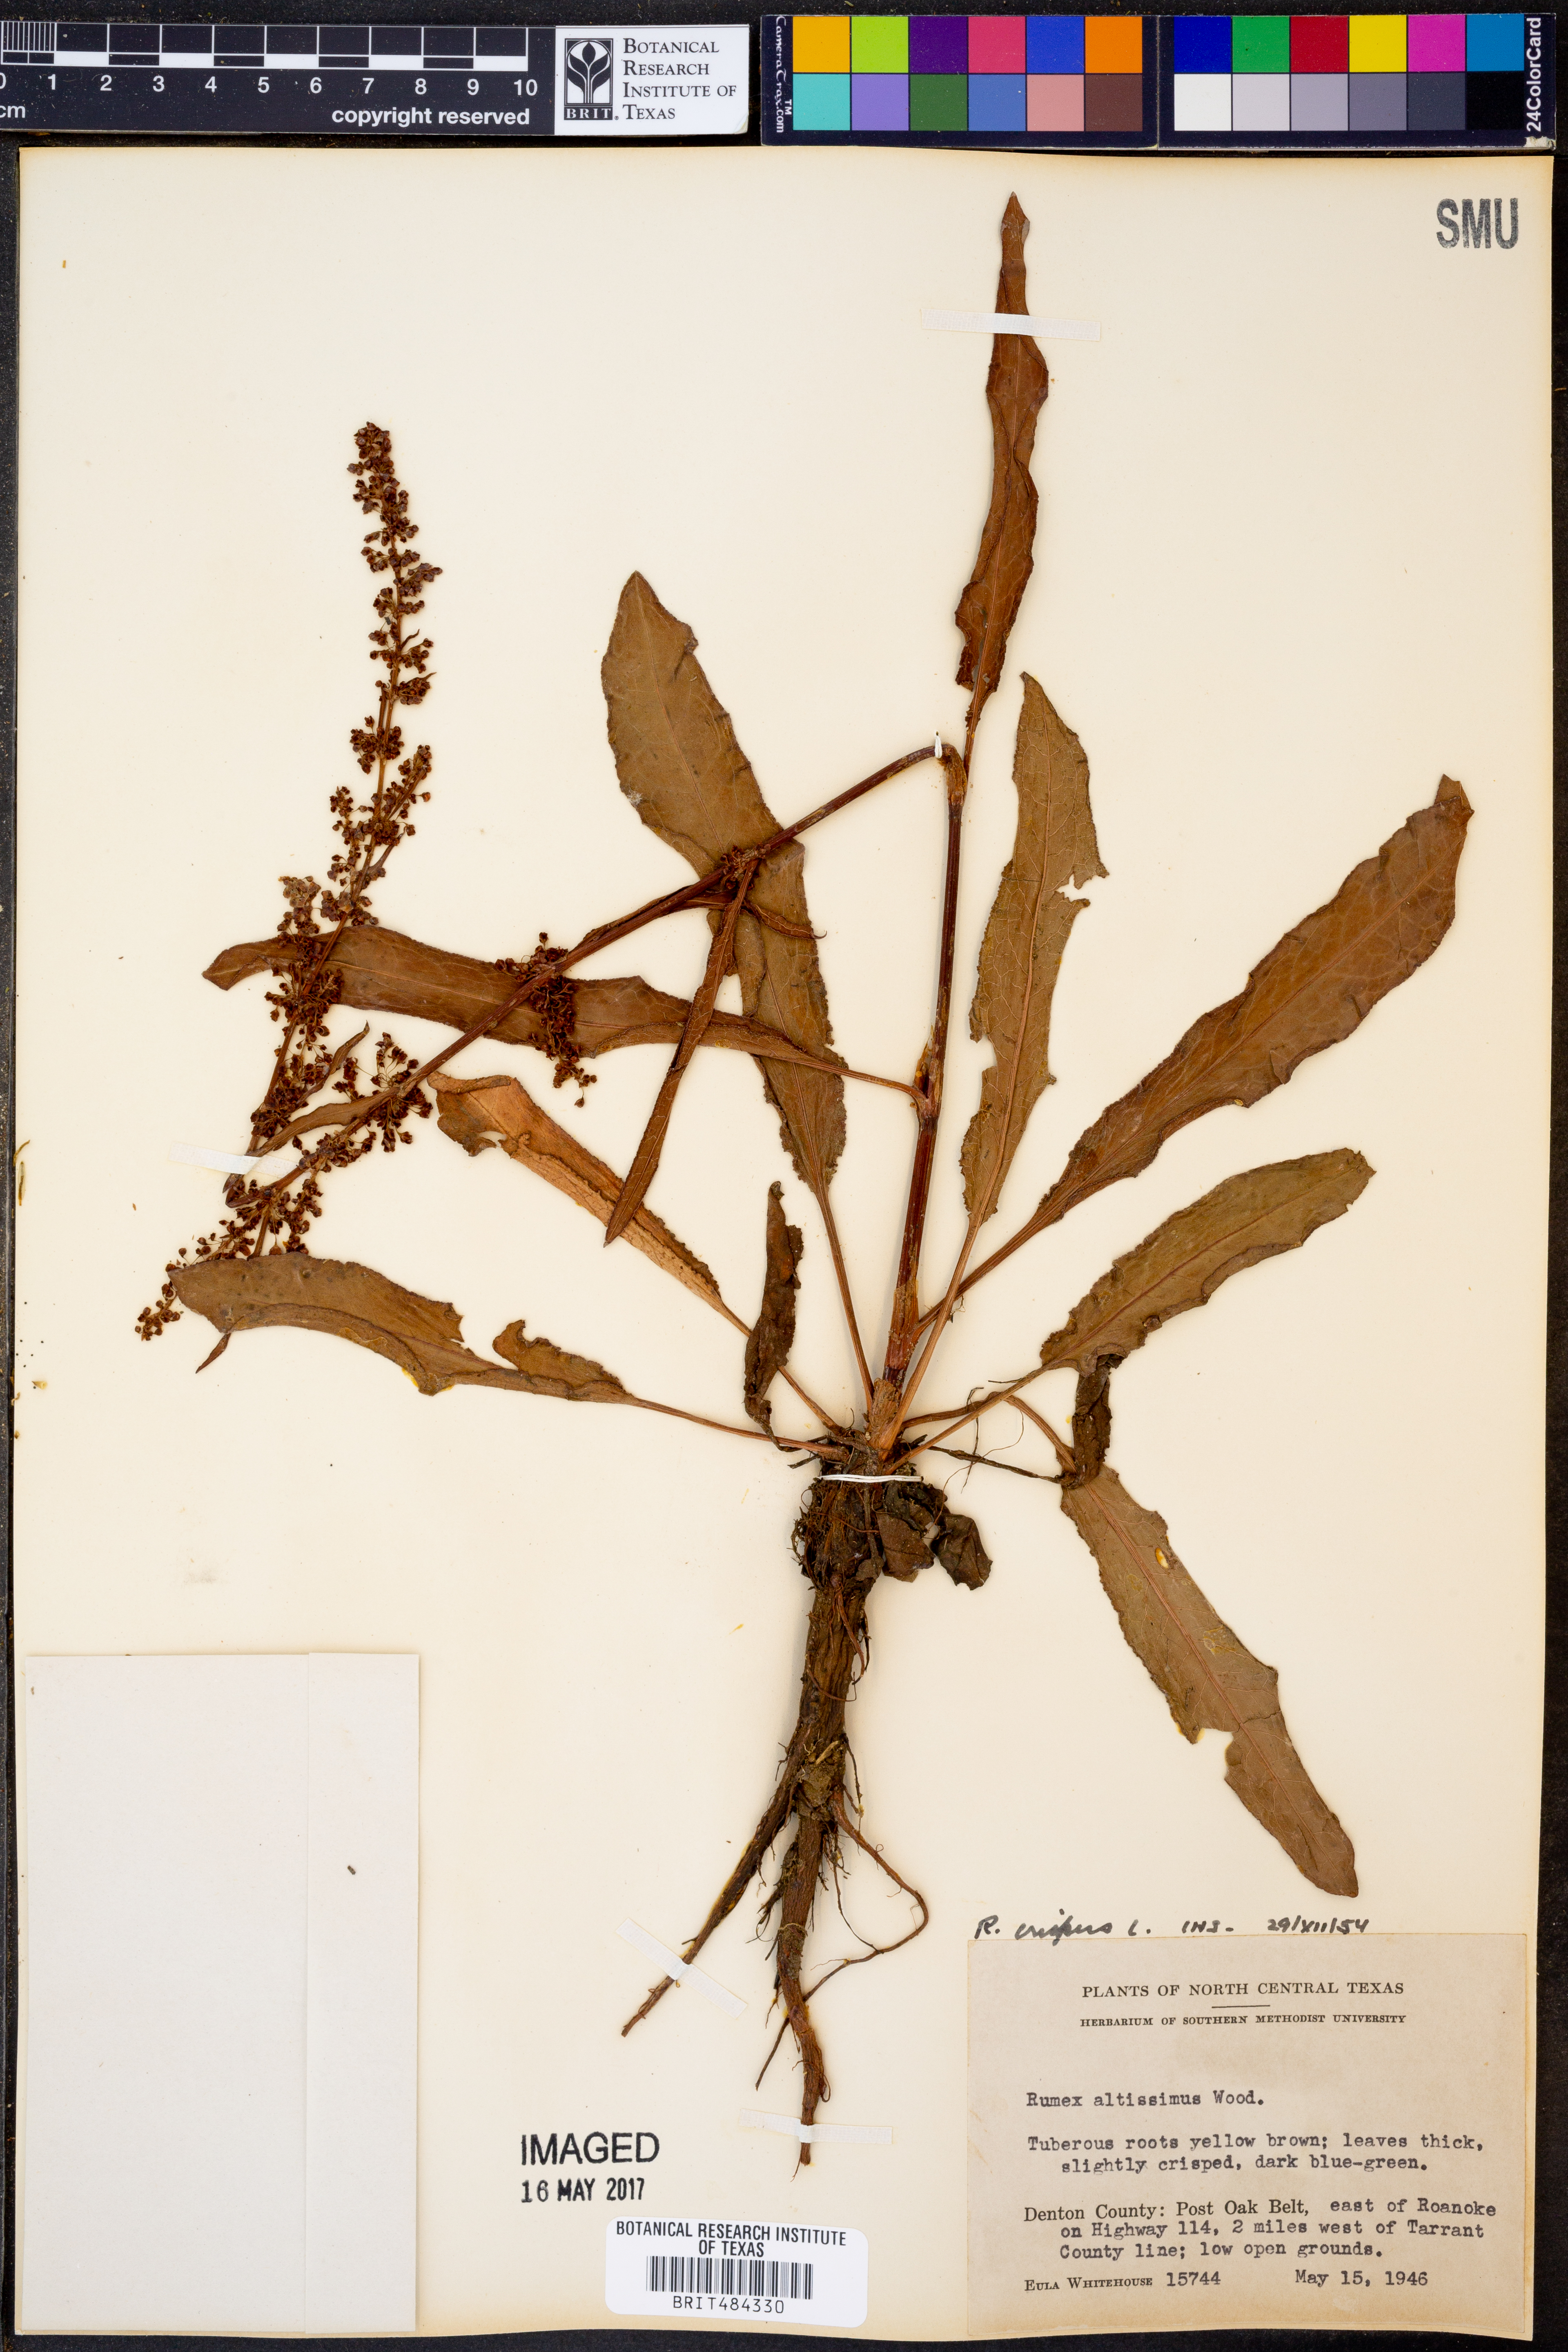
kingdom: Plantae
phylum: Tracheophyta
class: Magnoliopsida
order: Caryophyllales
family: Polygonaceae
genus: Rumex
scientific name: Rumex crispus
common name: Curled dock
